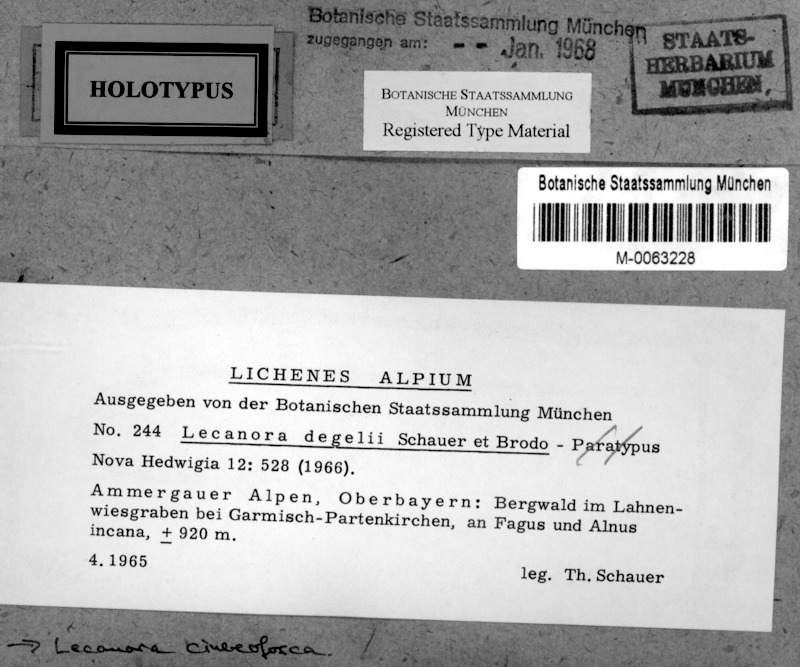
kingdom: Fungi
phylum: Ascomycota
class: Lecanoromycetes
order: Lecanorales
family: Lecanoraceae
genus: Lecanora
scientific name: Lecanora cinereofusca
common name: Beaded rim-lichen
